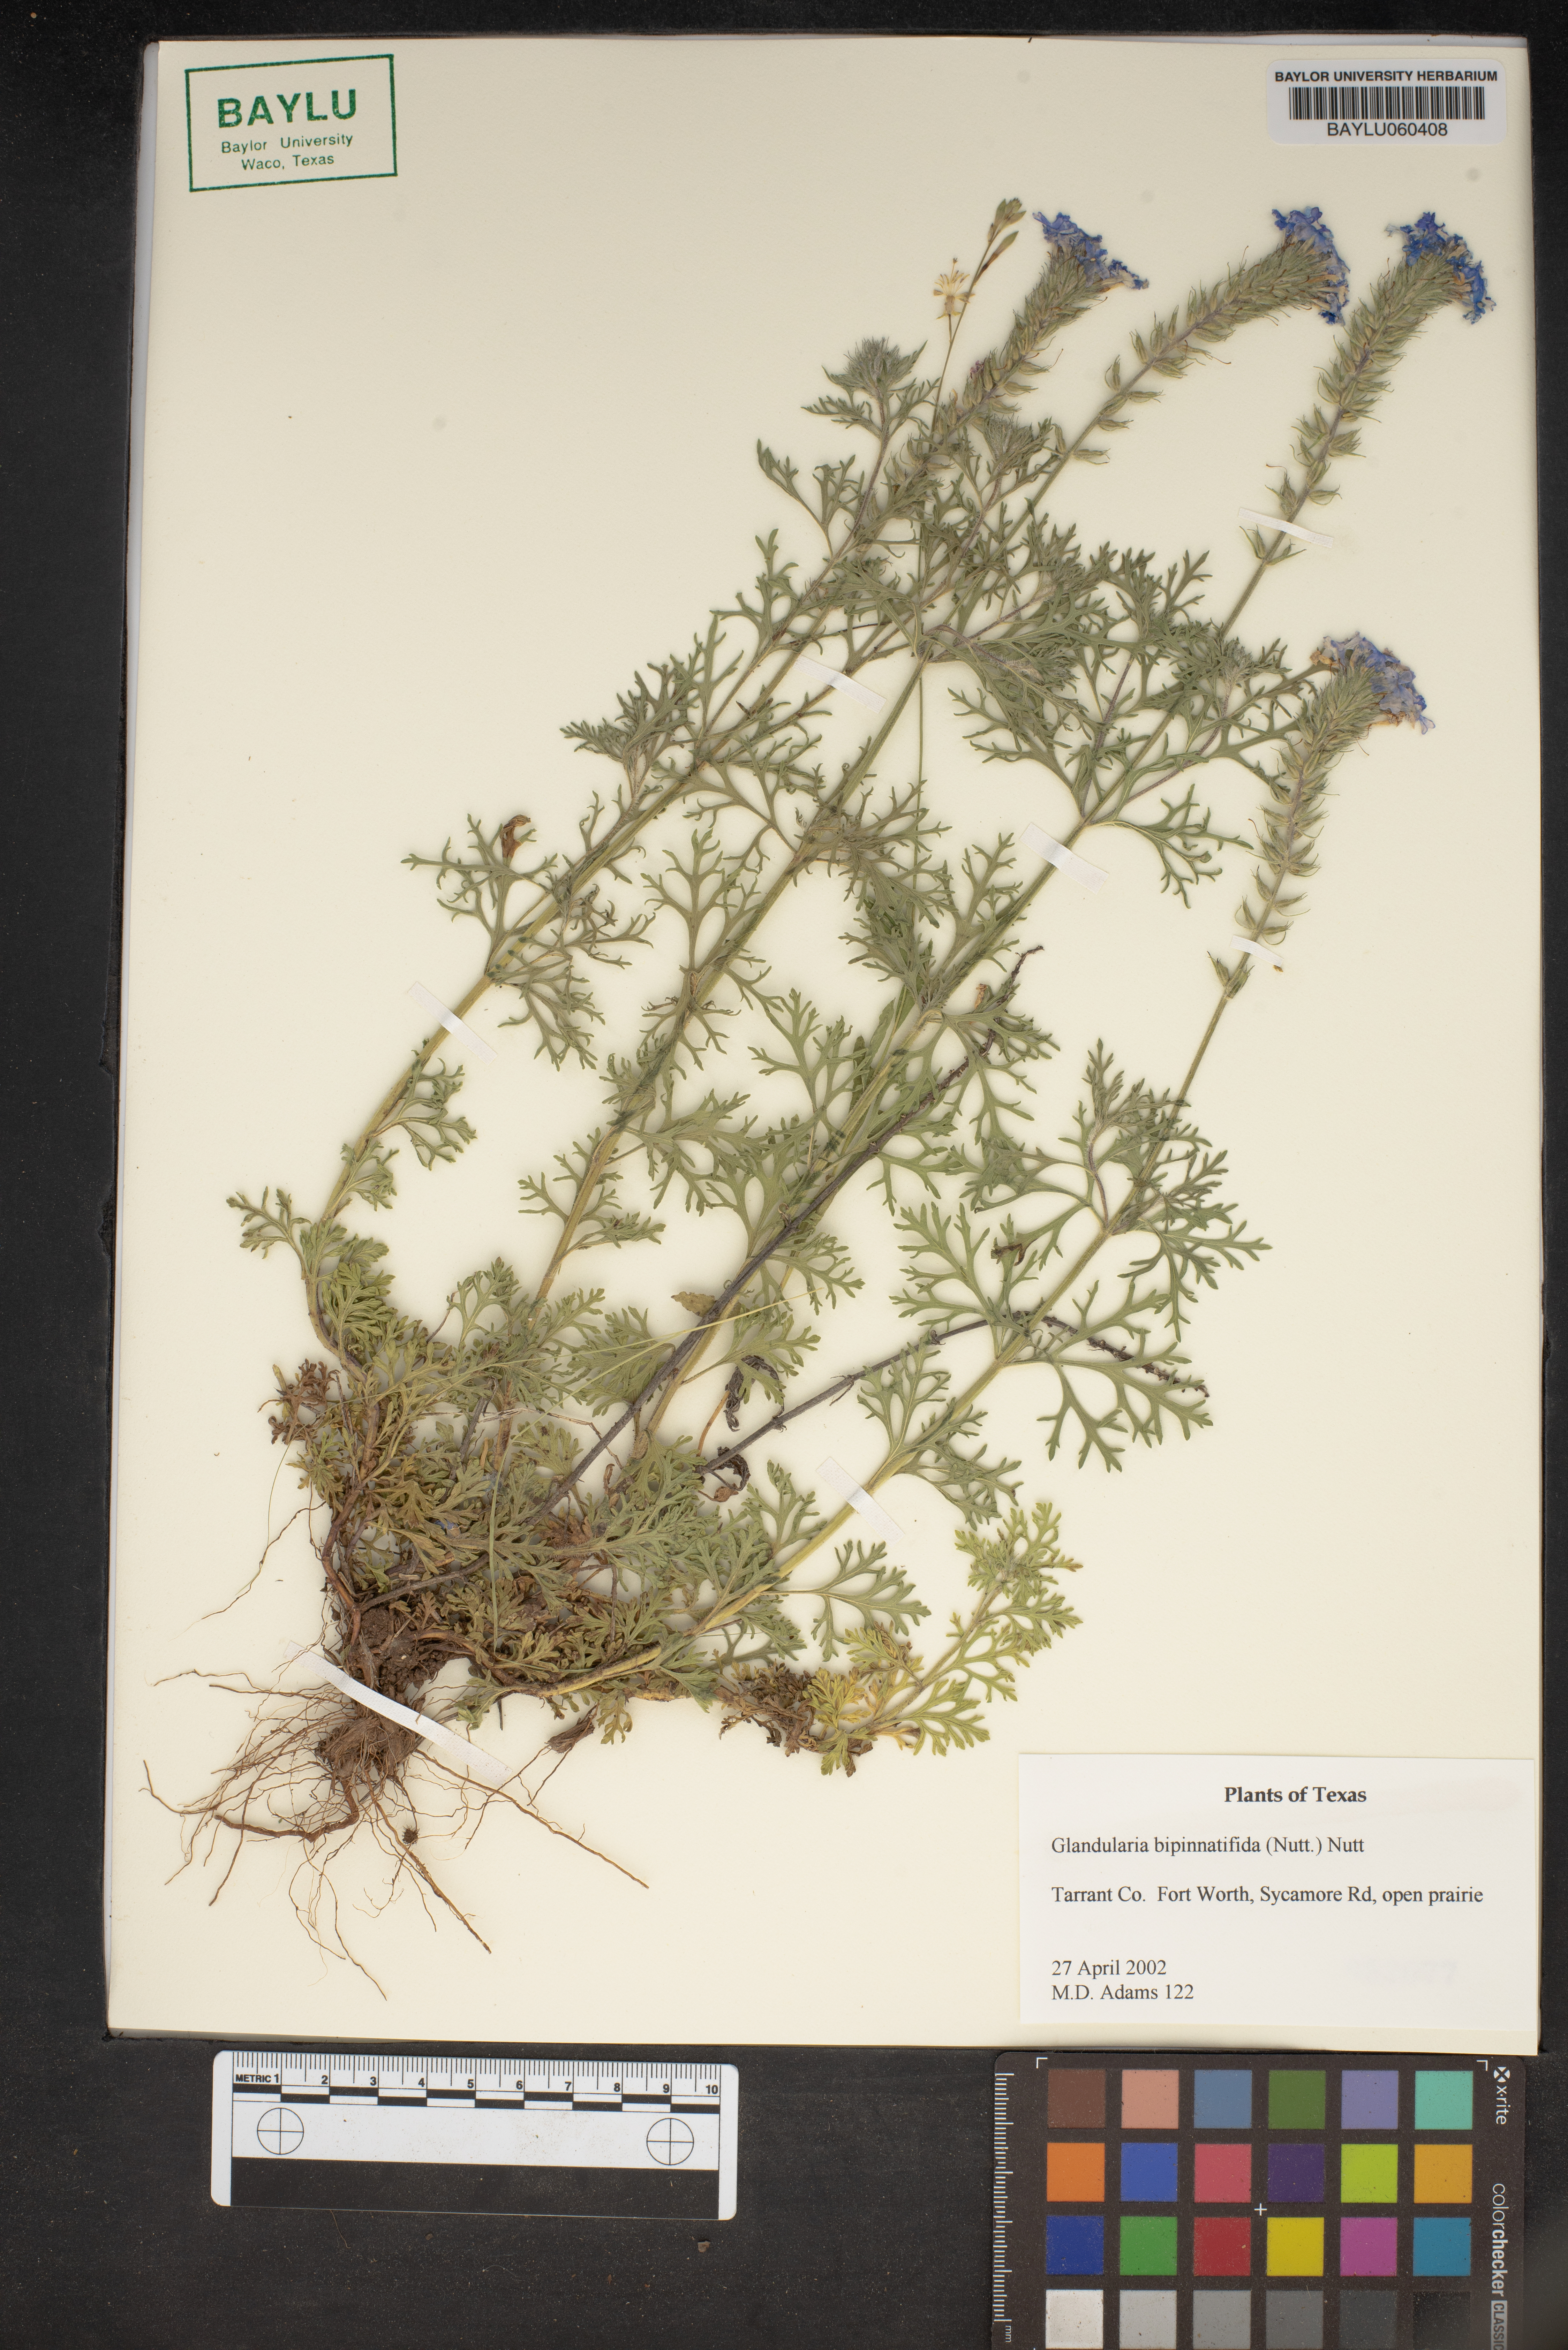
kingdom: Plantae
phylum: Tracheophyta
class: Magnoliopsida
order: Lamiales
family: Verbenaceae
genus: Verbena
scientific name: Verbena bipinnatifida
